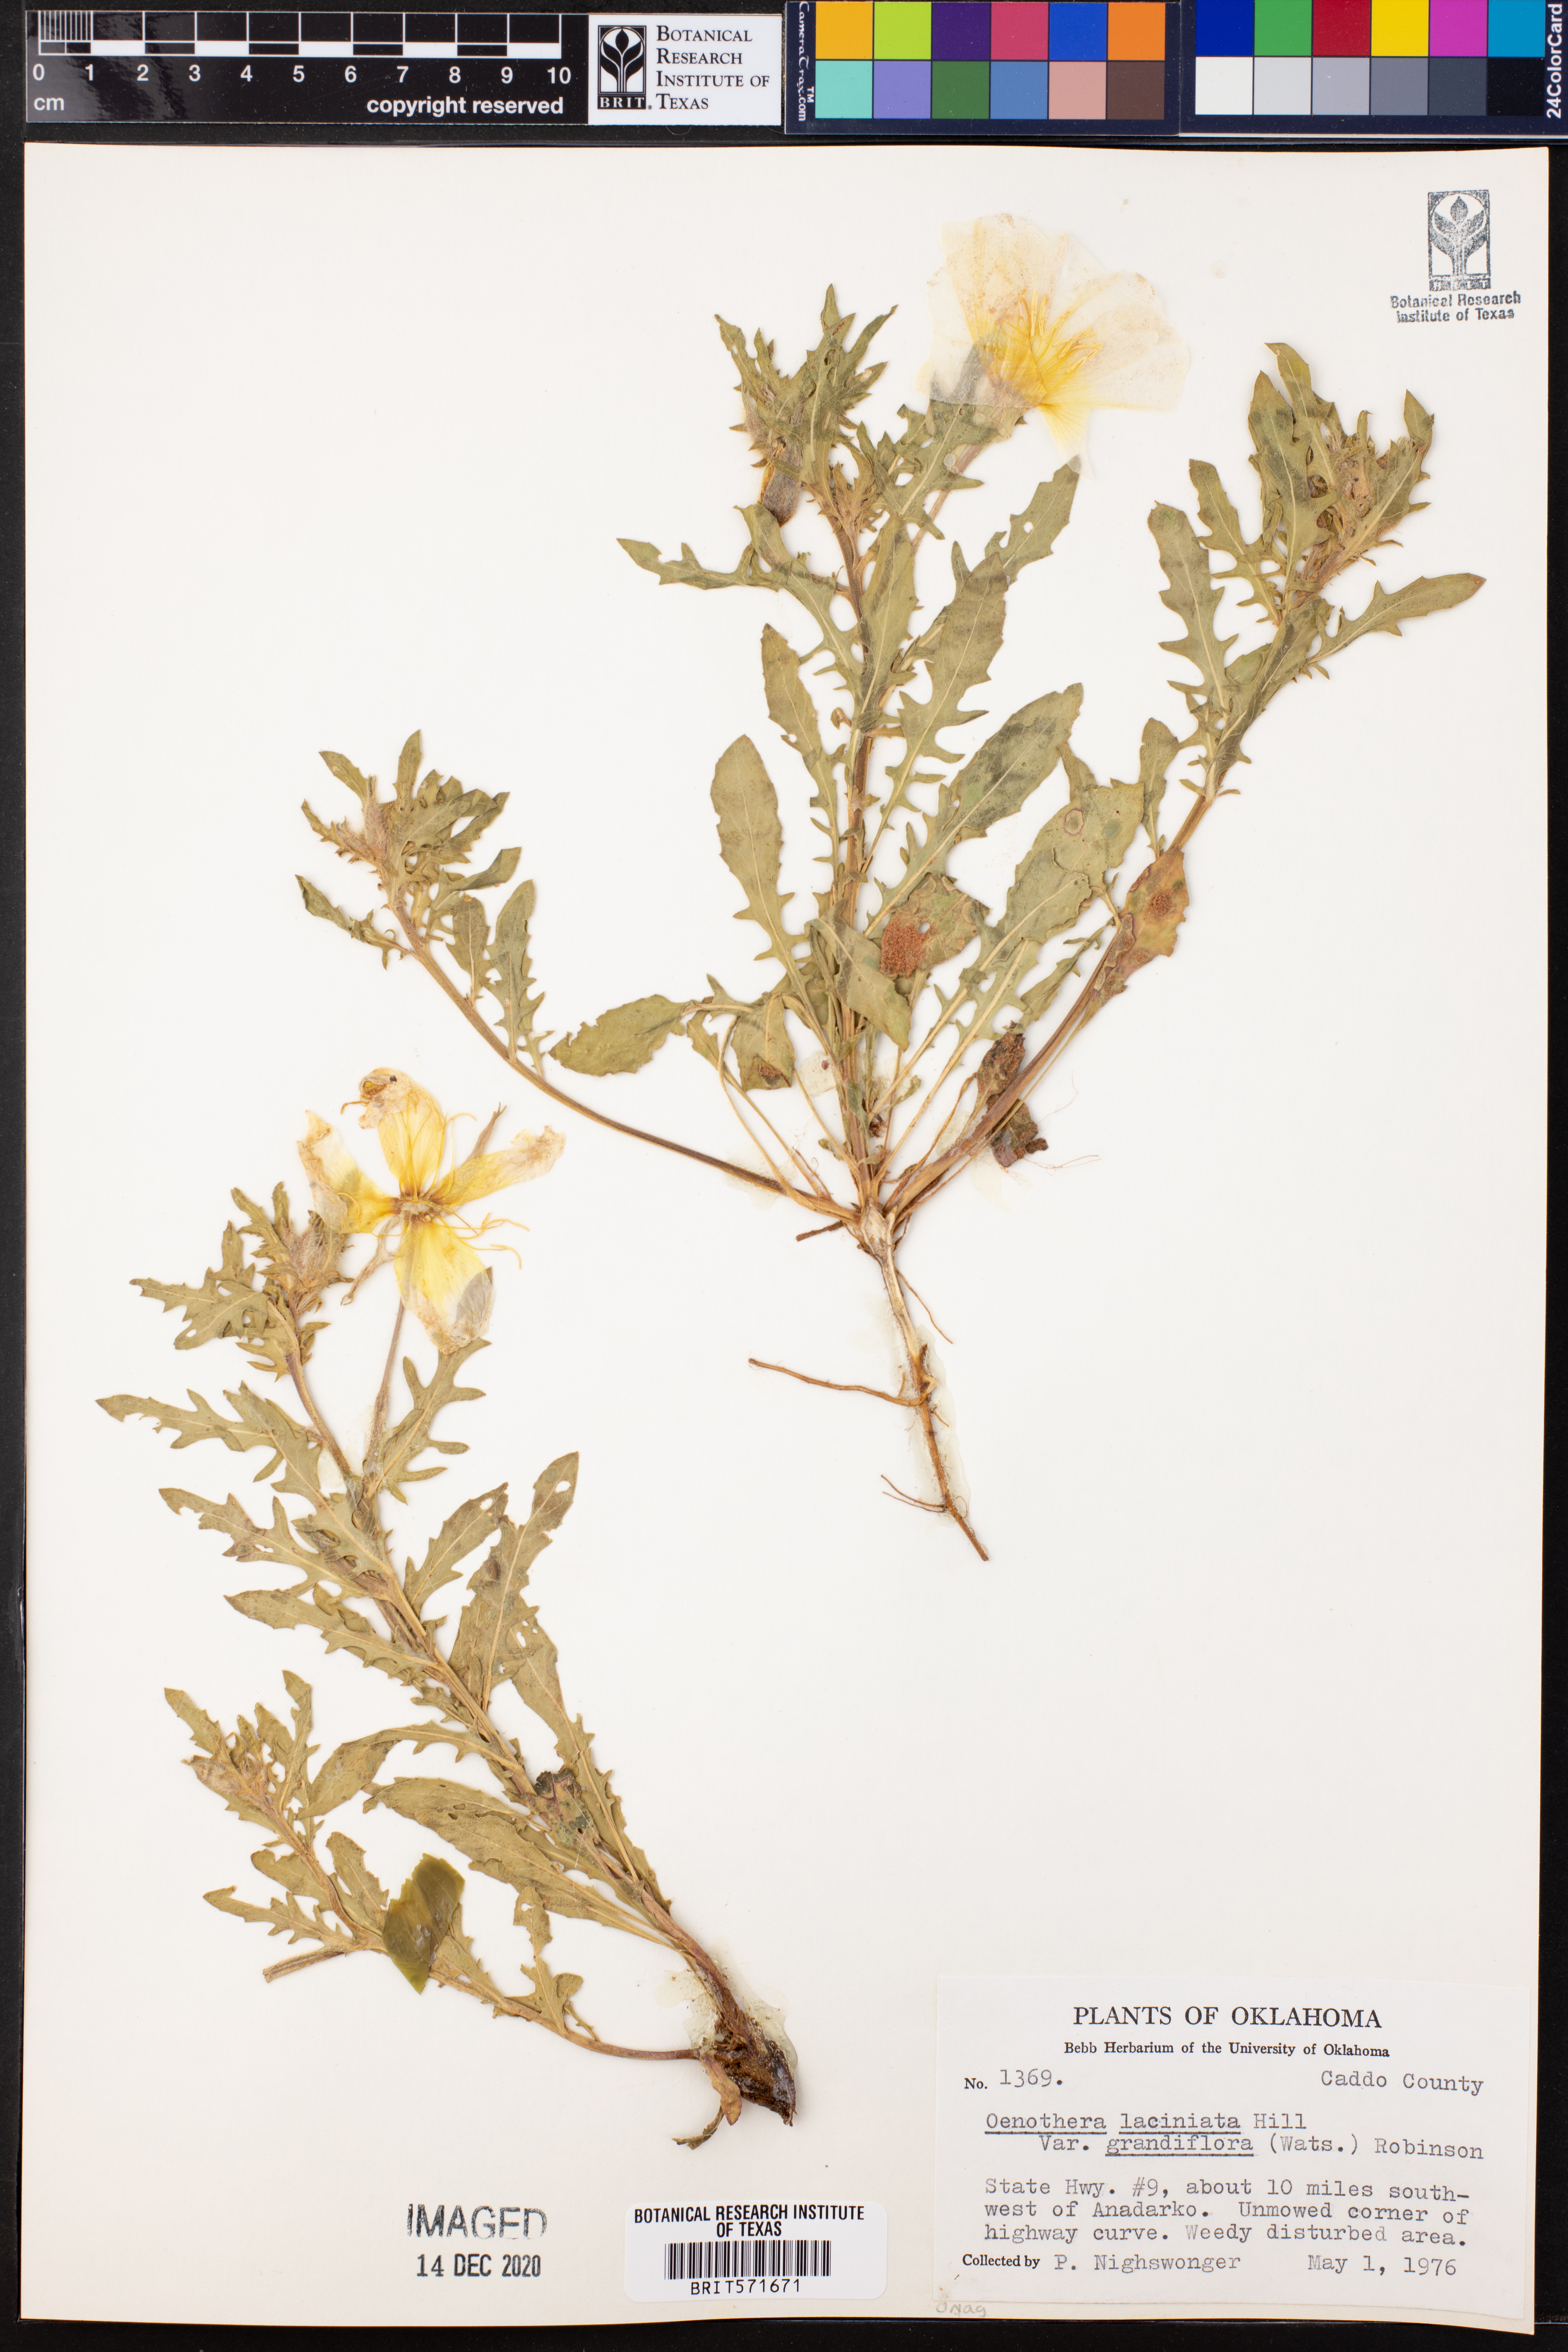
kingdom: Plantae
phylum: Tracheophyta
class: Magnoliopsida
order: Myrtales
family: Onagraceae
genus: Oenothera
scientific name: Oenothera grandis
